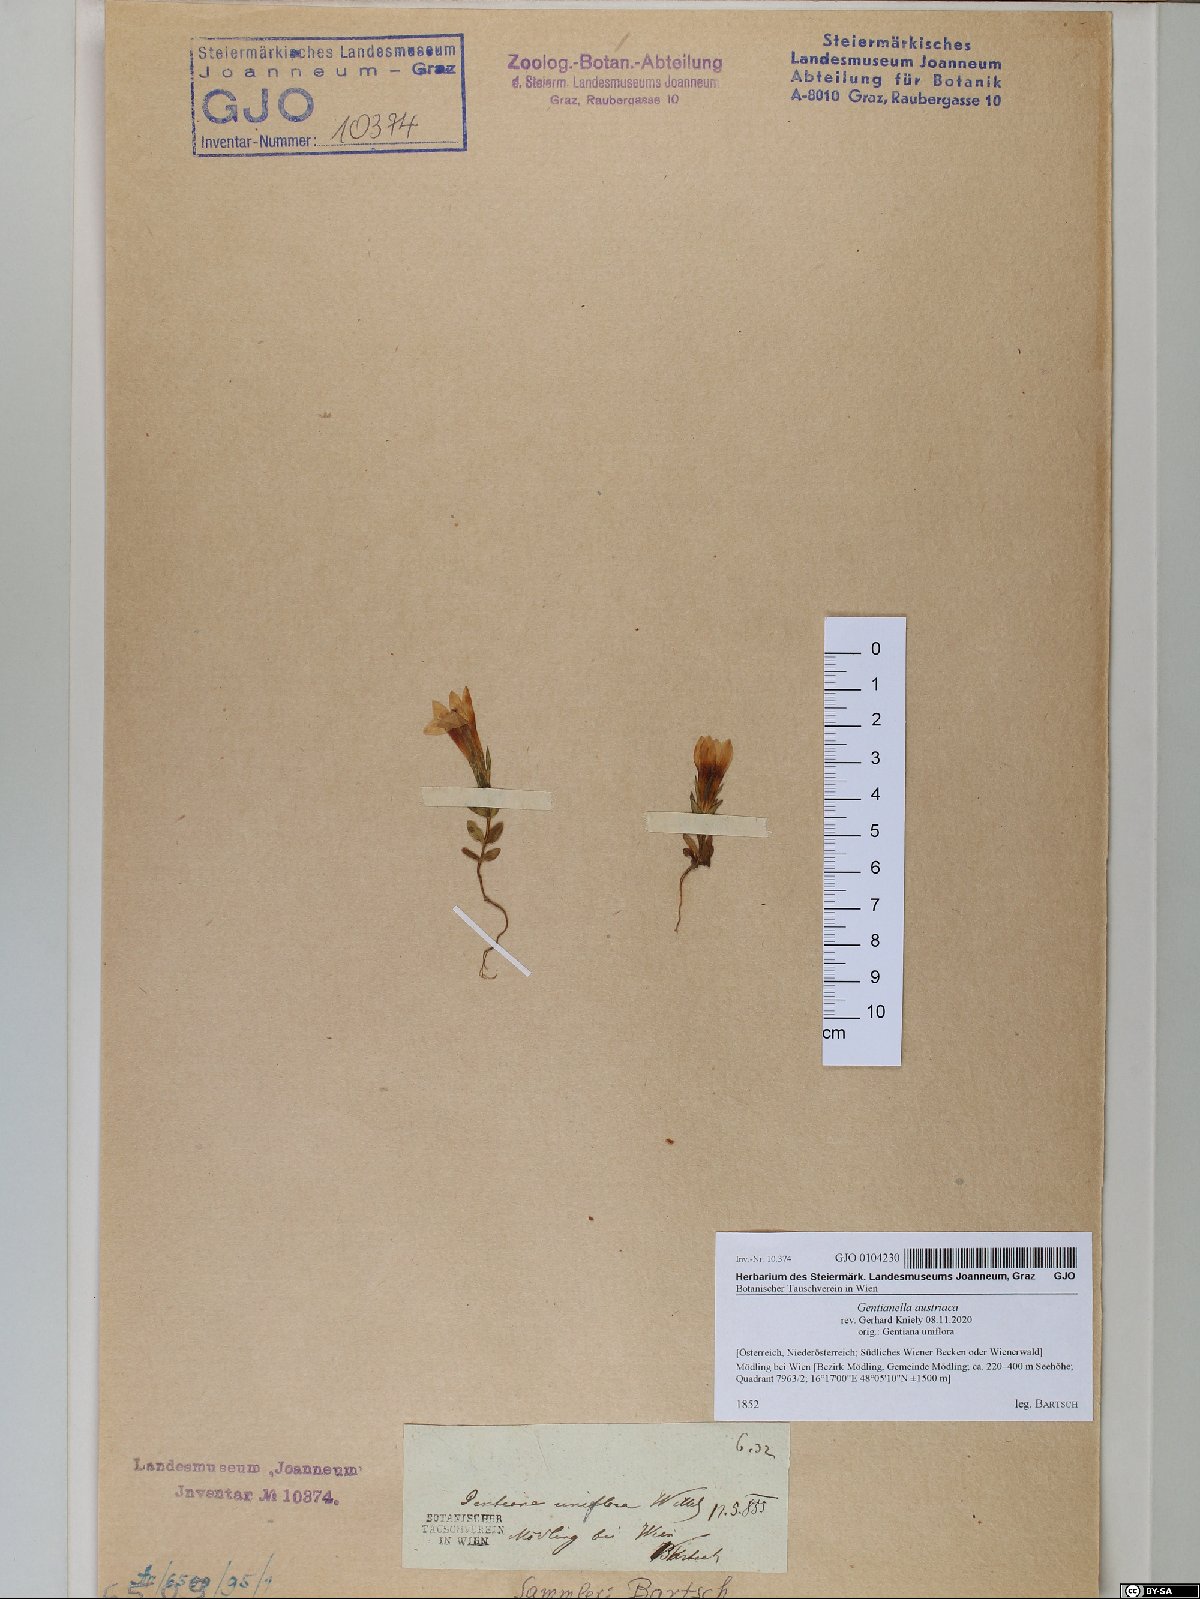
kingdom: Plantae
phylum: Tracheophyta
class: Magnoliopsida
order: Gentianales
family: Gentianaceae
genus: Gentianella
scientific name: Gentianella austriaca
